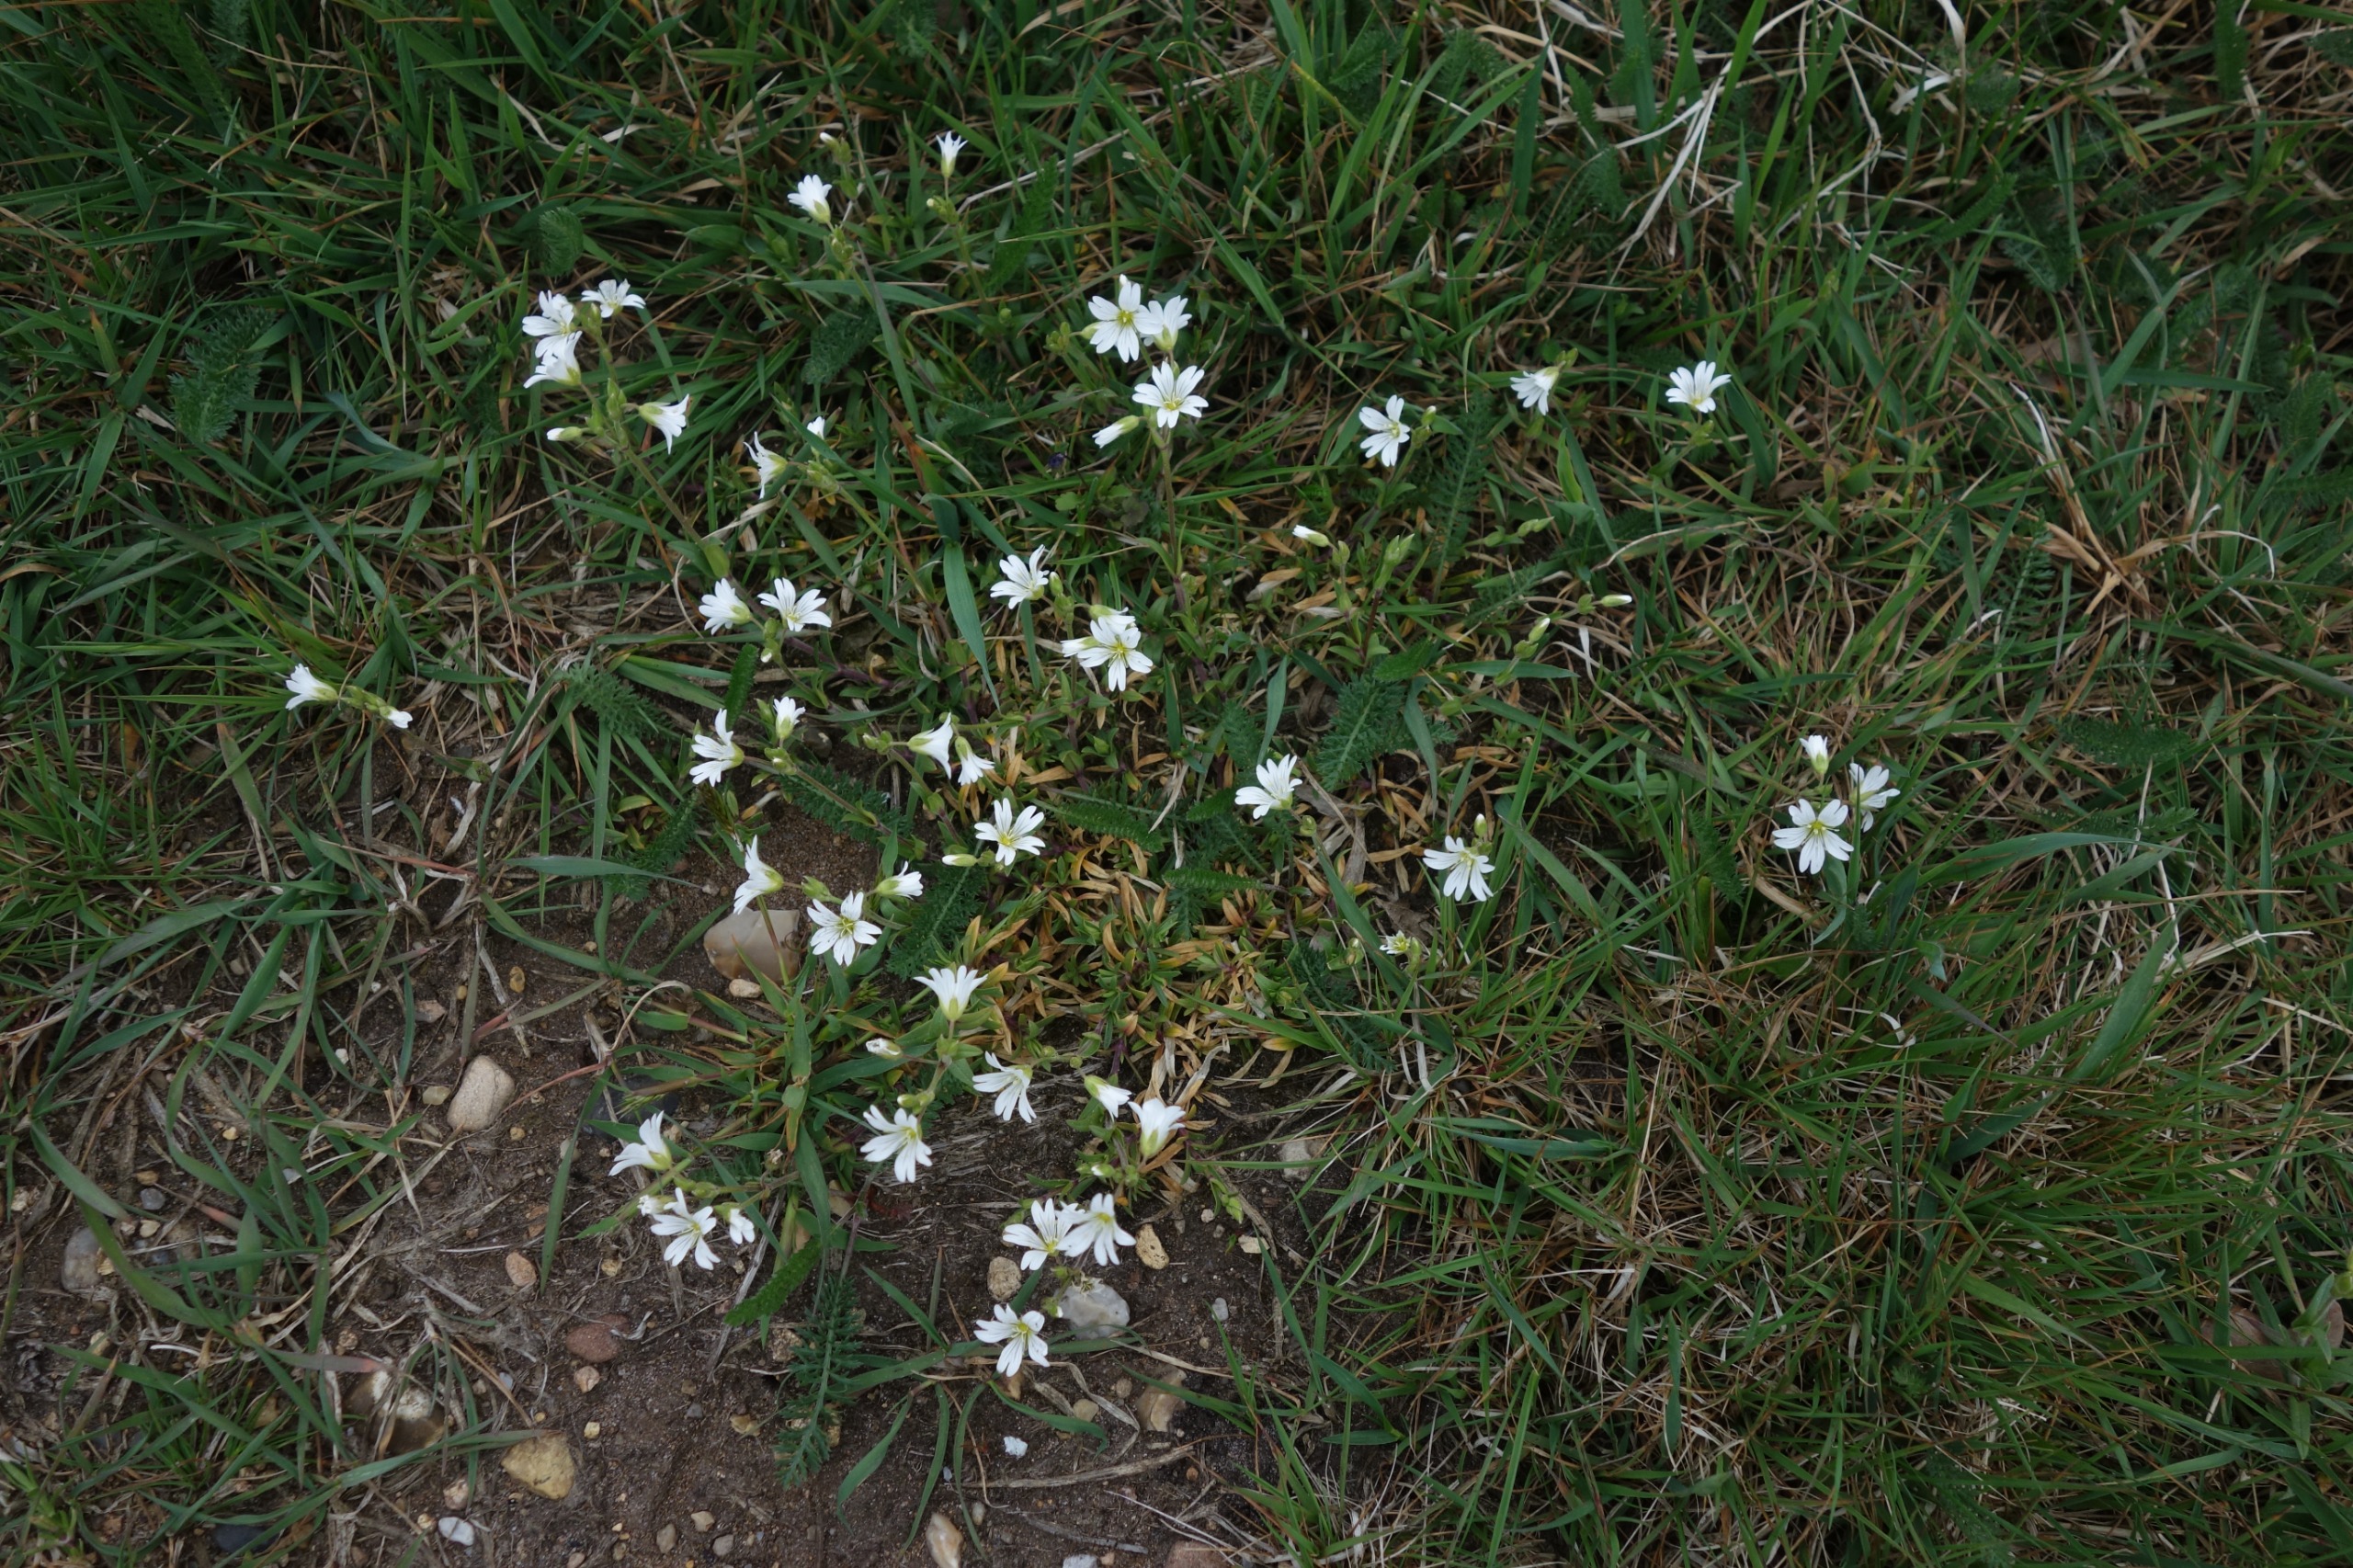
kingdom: Plantae
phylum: Tracheophyta
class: Magnoliopsida
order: Caryophyllales
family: Caryophyllaceae
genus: Cerastium
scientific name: Cerastium arvense
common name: Storblomstret hønsetarm
